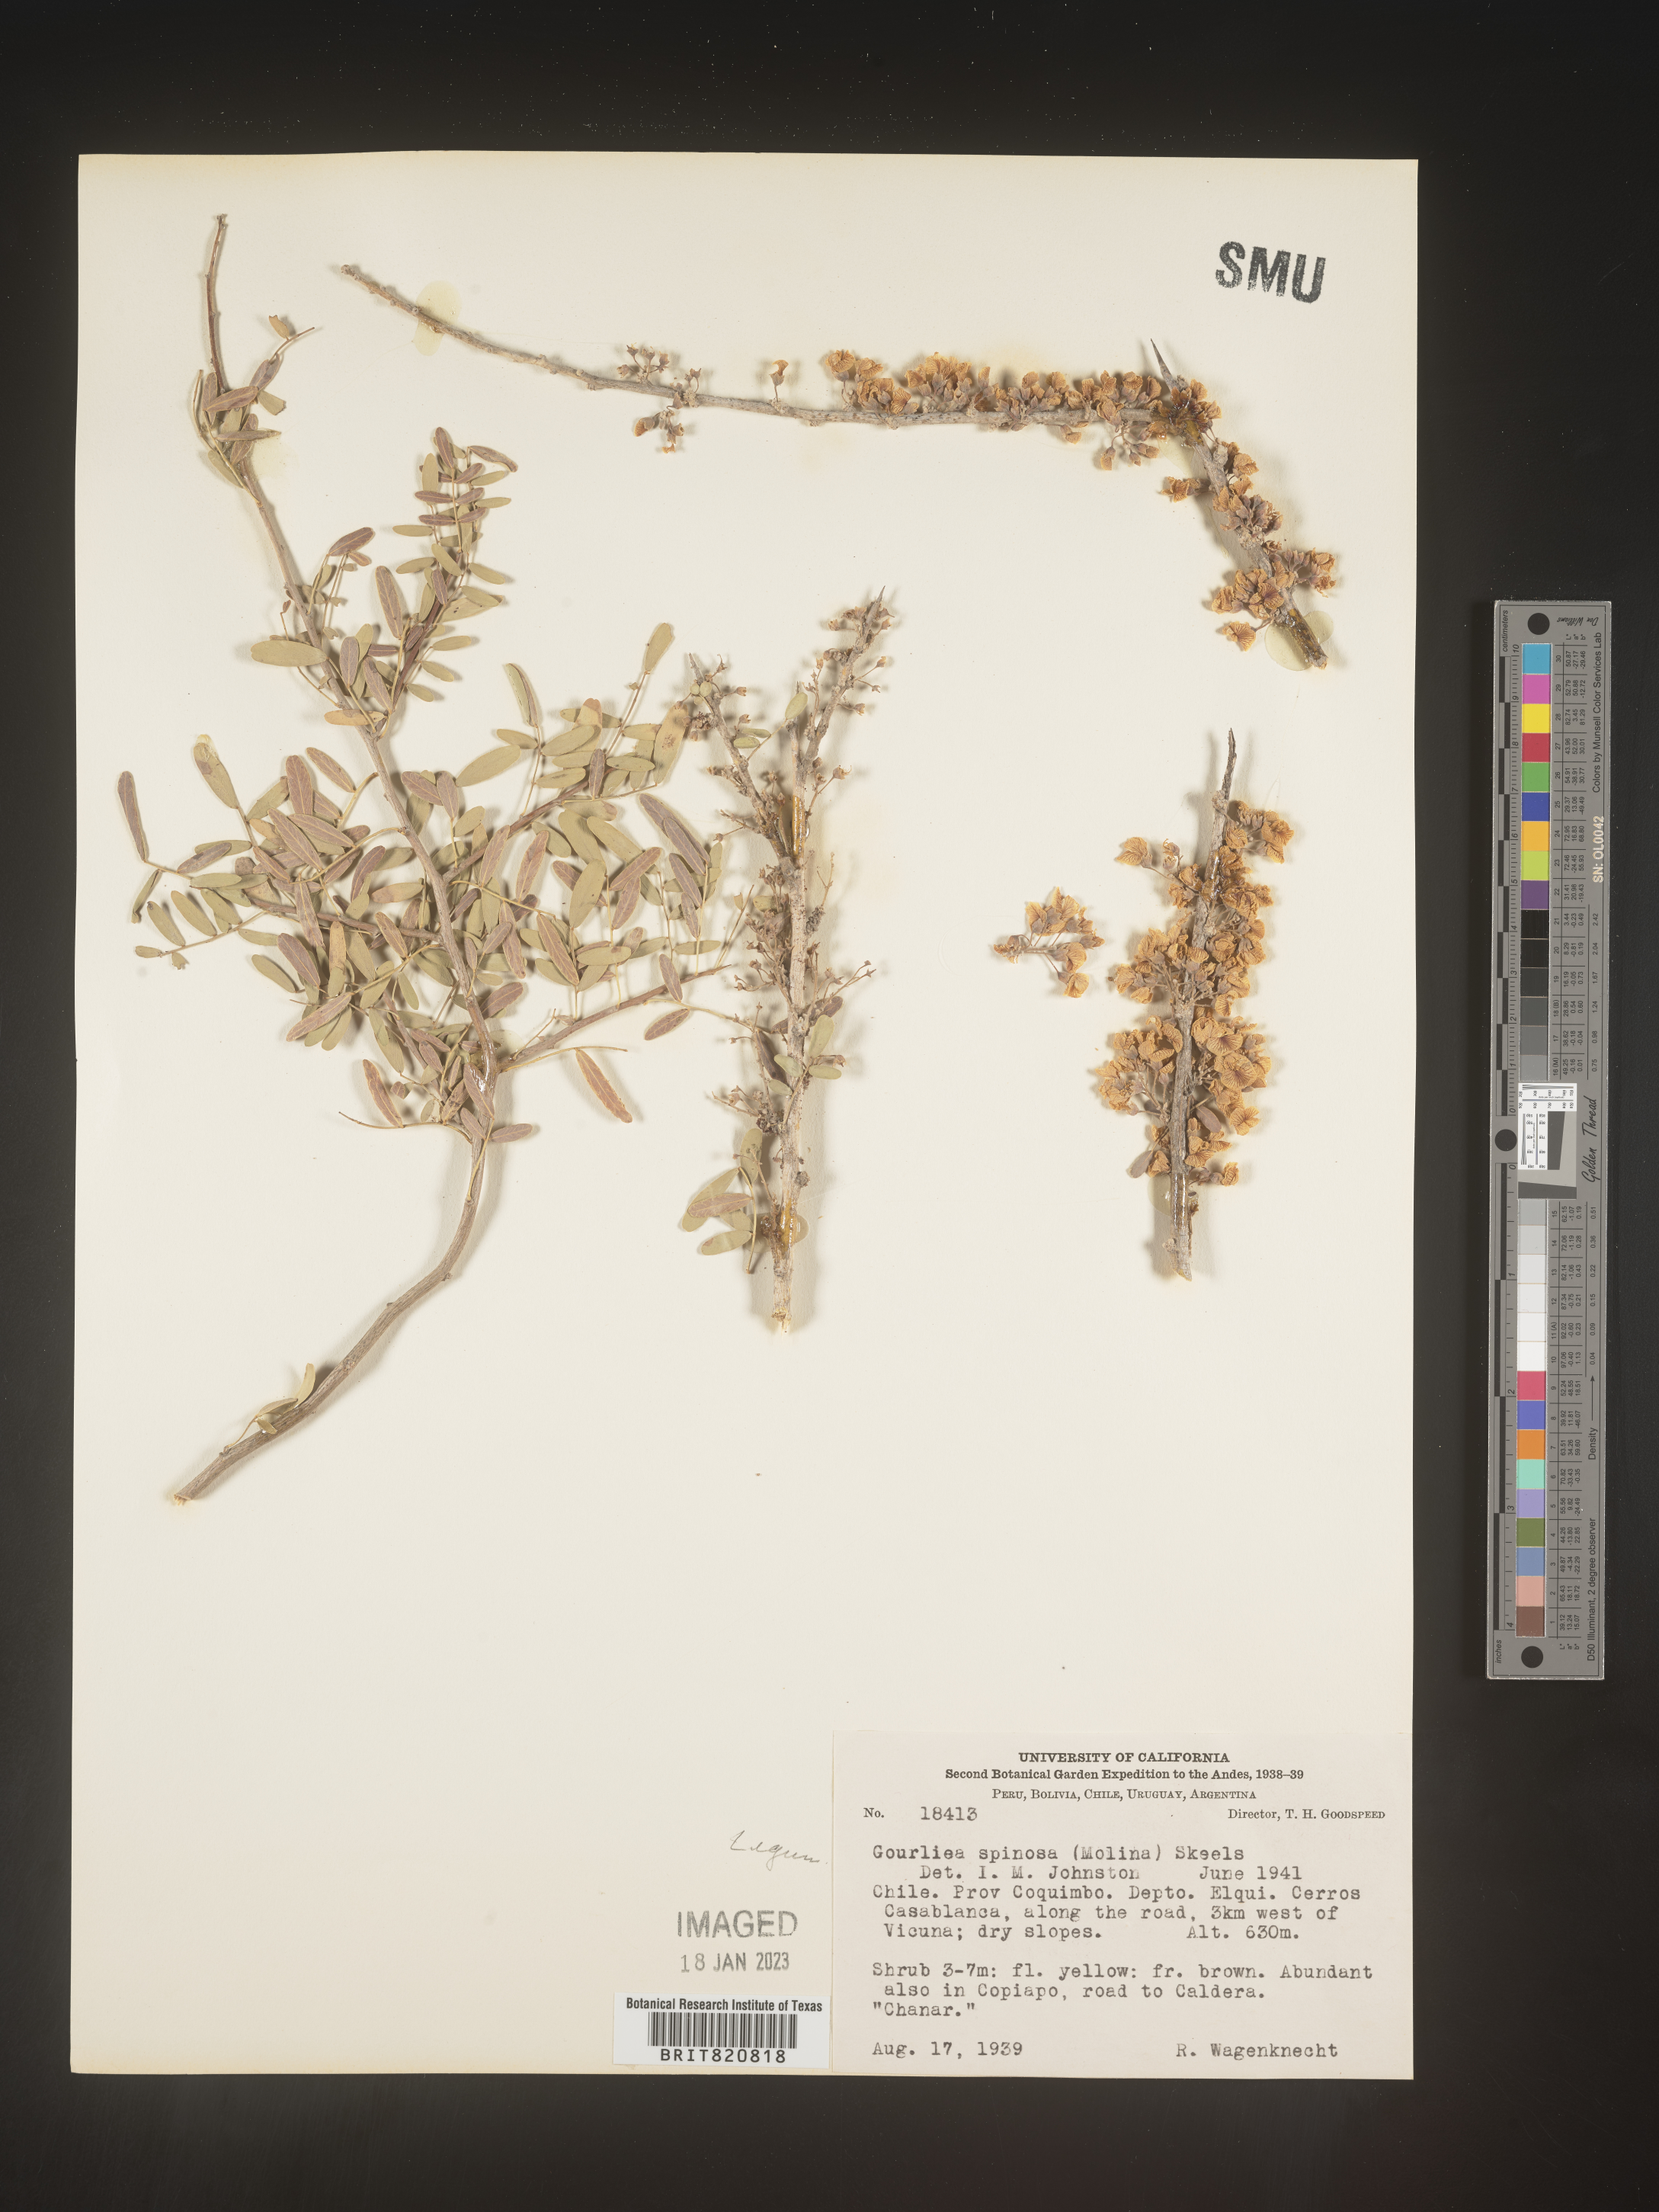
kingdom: Plantae
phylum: Tracheophyta
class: Magnoliopsida
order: Fabales
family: Fabaceae
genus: Geoffroea
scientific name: Geoffroea
